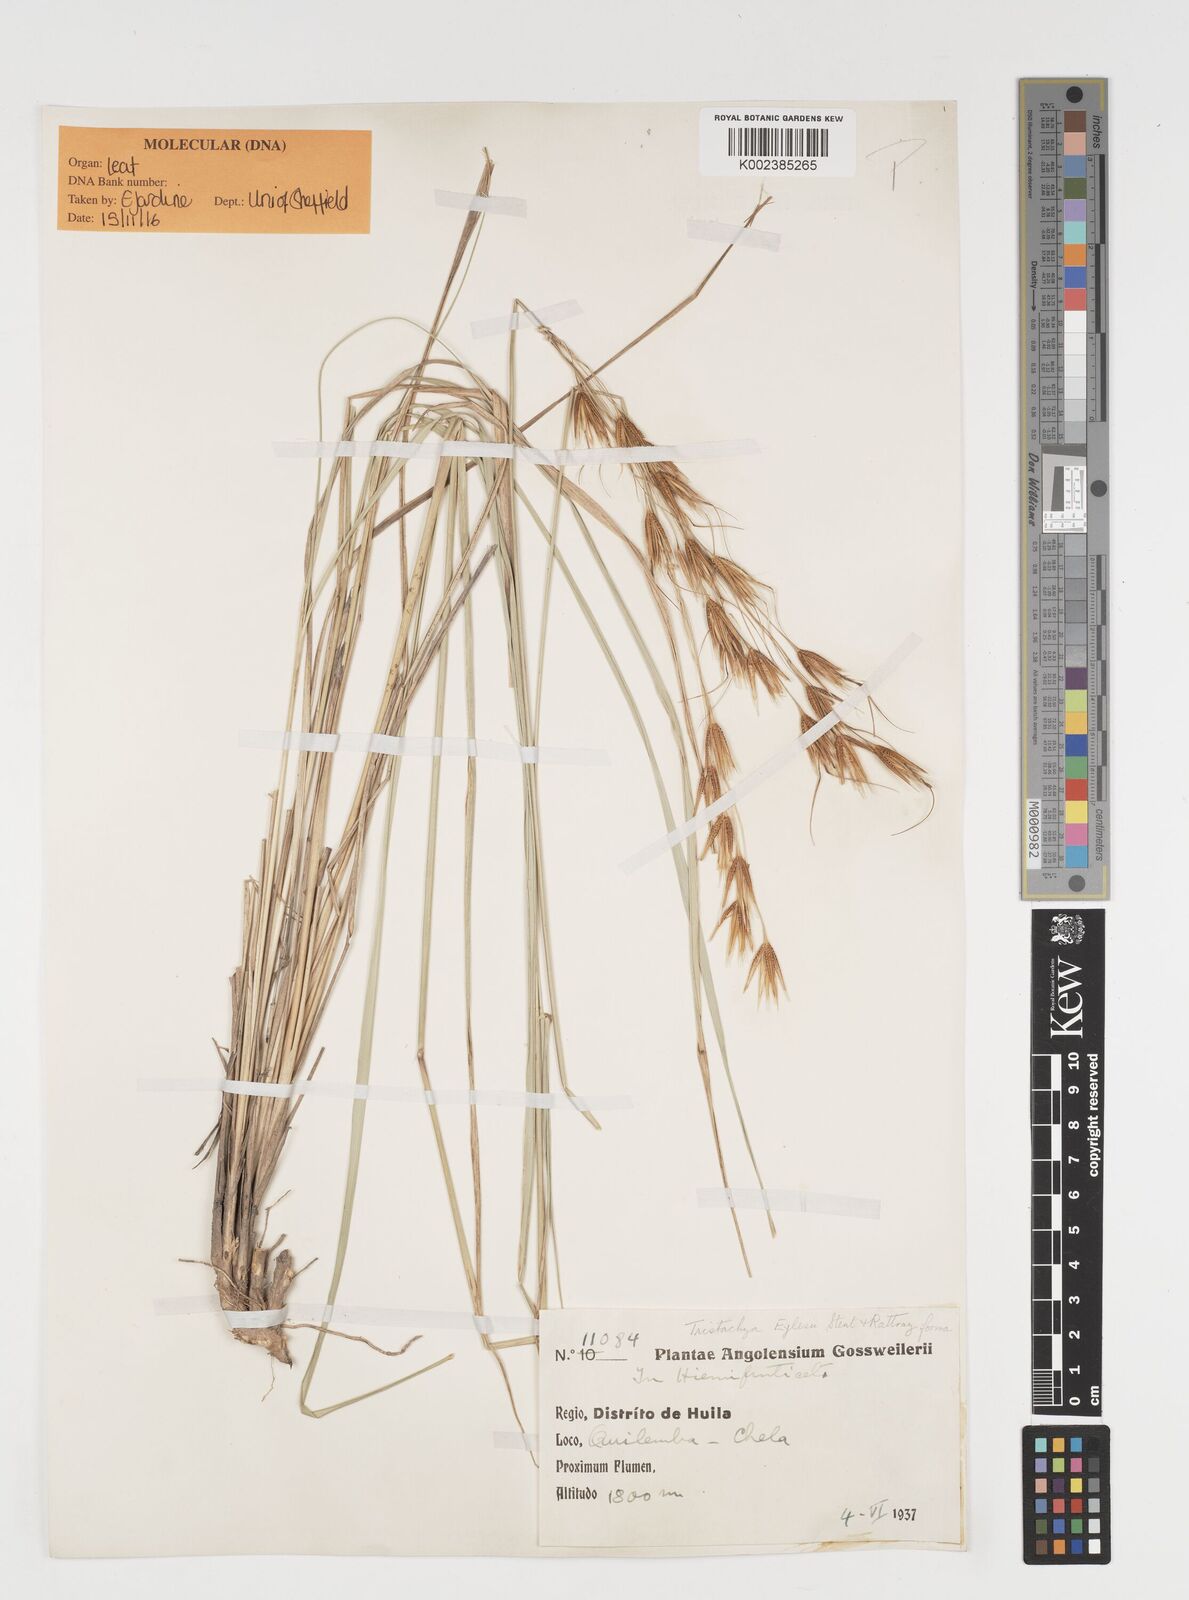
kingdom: Plantae
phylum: Tracheophyta
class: Liliopsida
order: Poales
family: Poaceae
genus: Tristachya
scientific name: Tristachya nodiglumis
